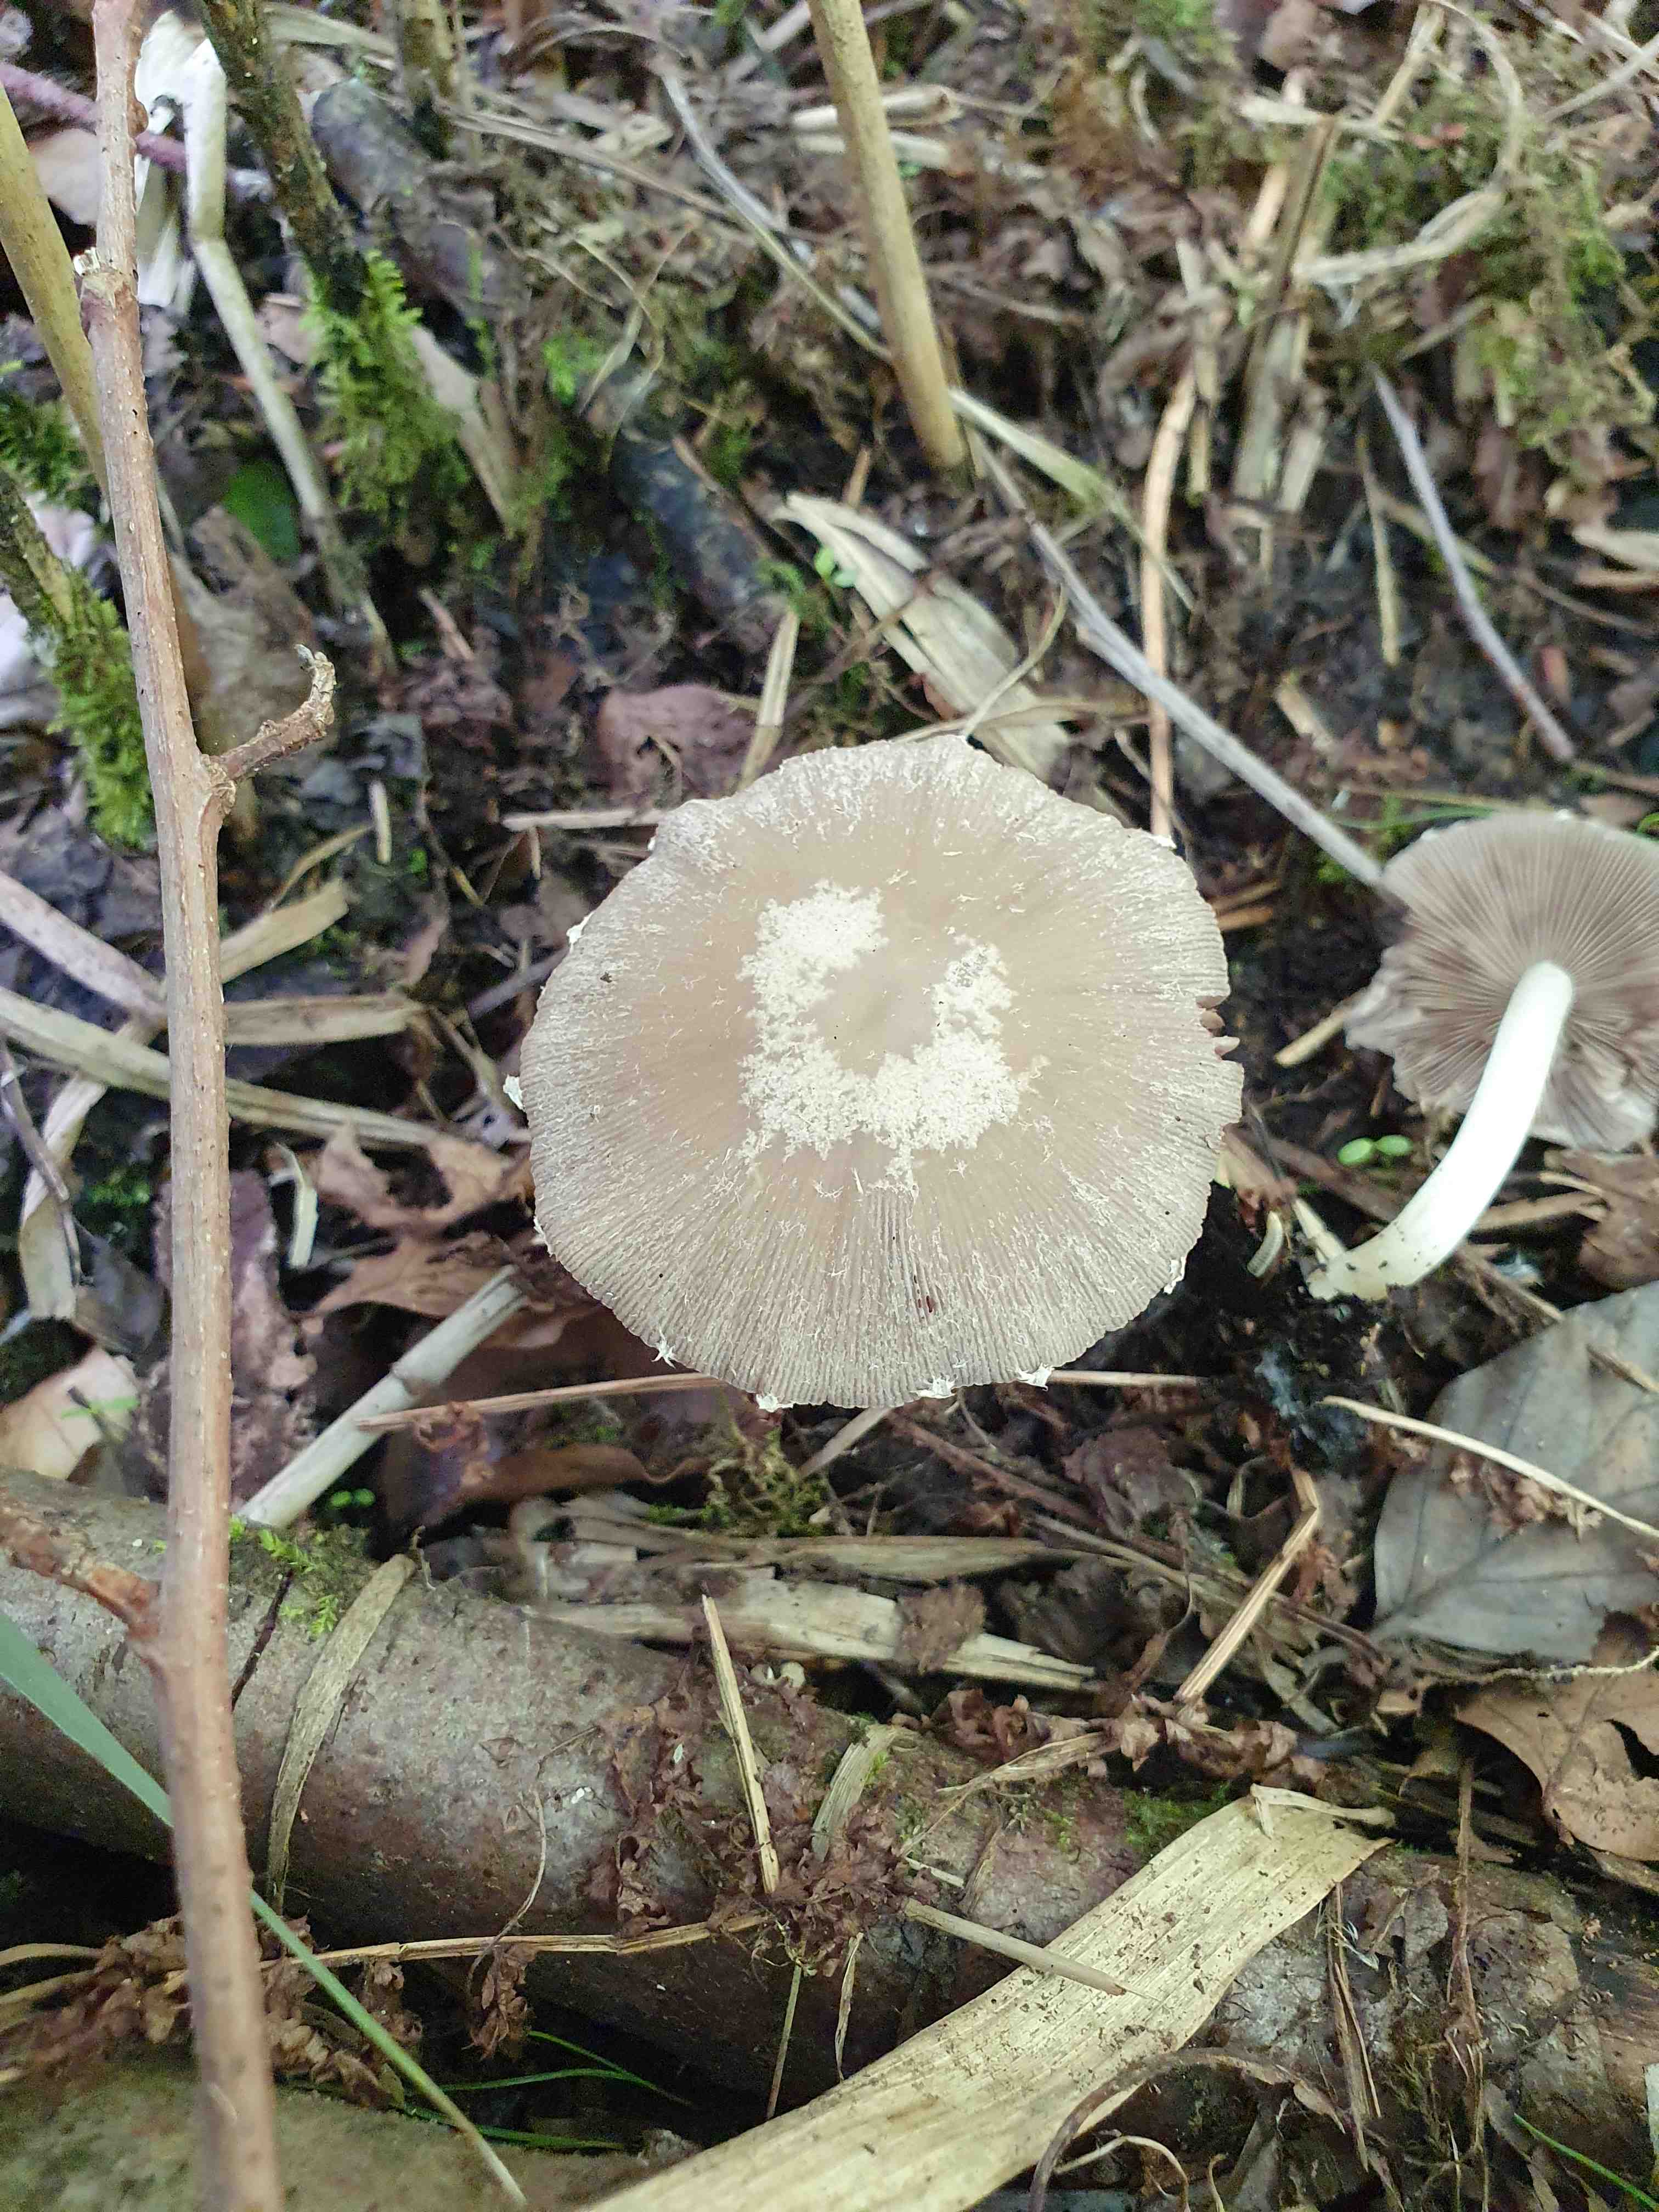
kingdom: Fungi
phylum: Basidiomycota
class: Agaricomycetes
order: Agaricales
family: Psathyrellaceae
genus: Candolleomyces
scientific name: Candolleomyces candolleanus
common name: Candolles mørkhat
